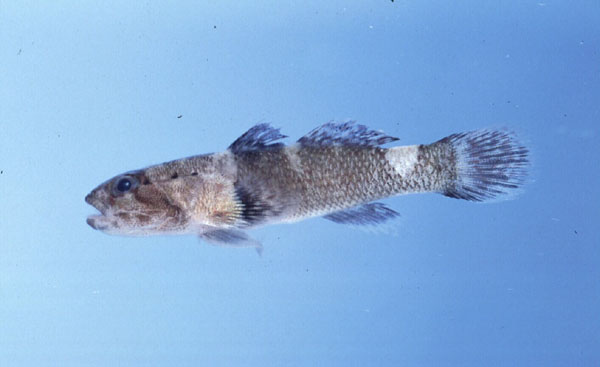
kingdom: Animalia
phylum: Chordata
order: Perciformes
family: Gobiidae
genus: Bathygobius
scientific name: Bathygobius cotticeps
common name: Cheekscaled frillgoby
